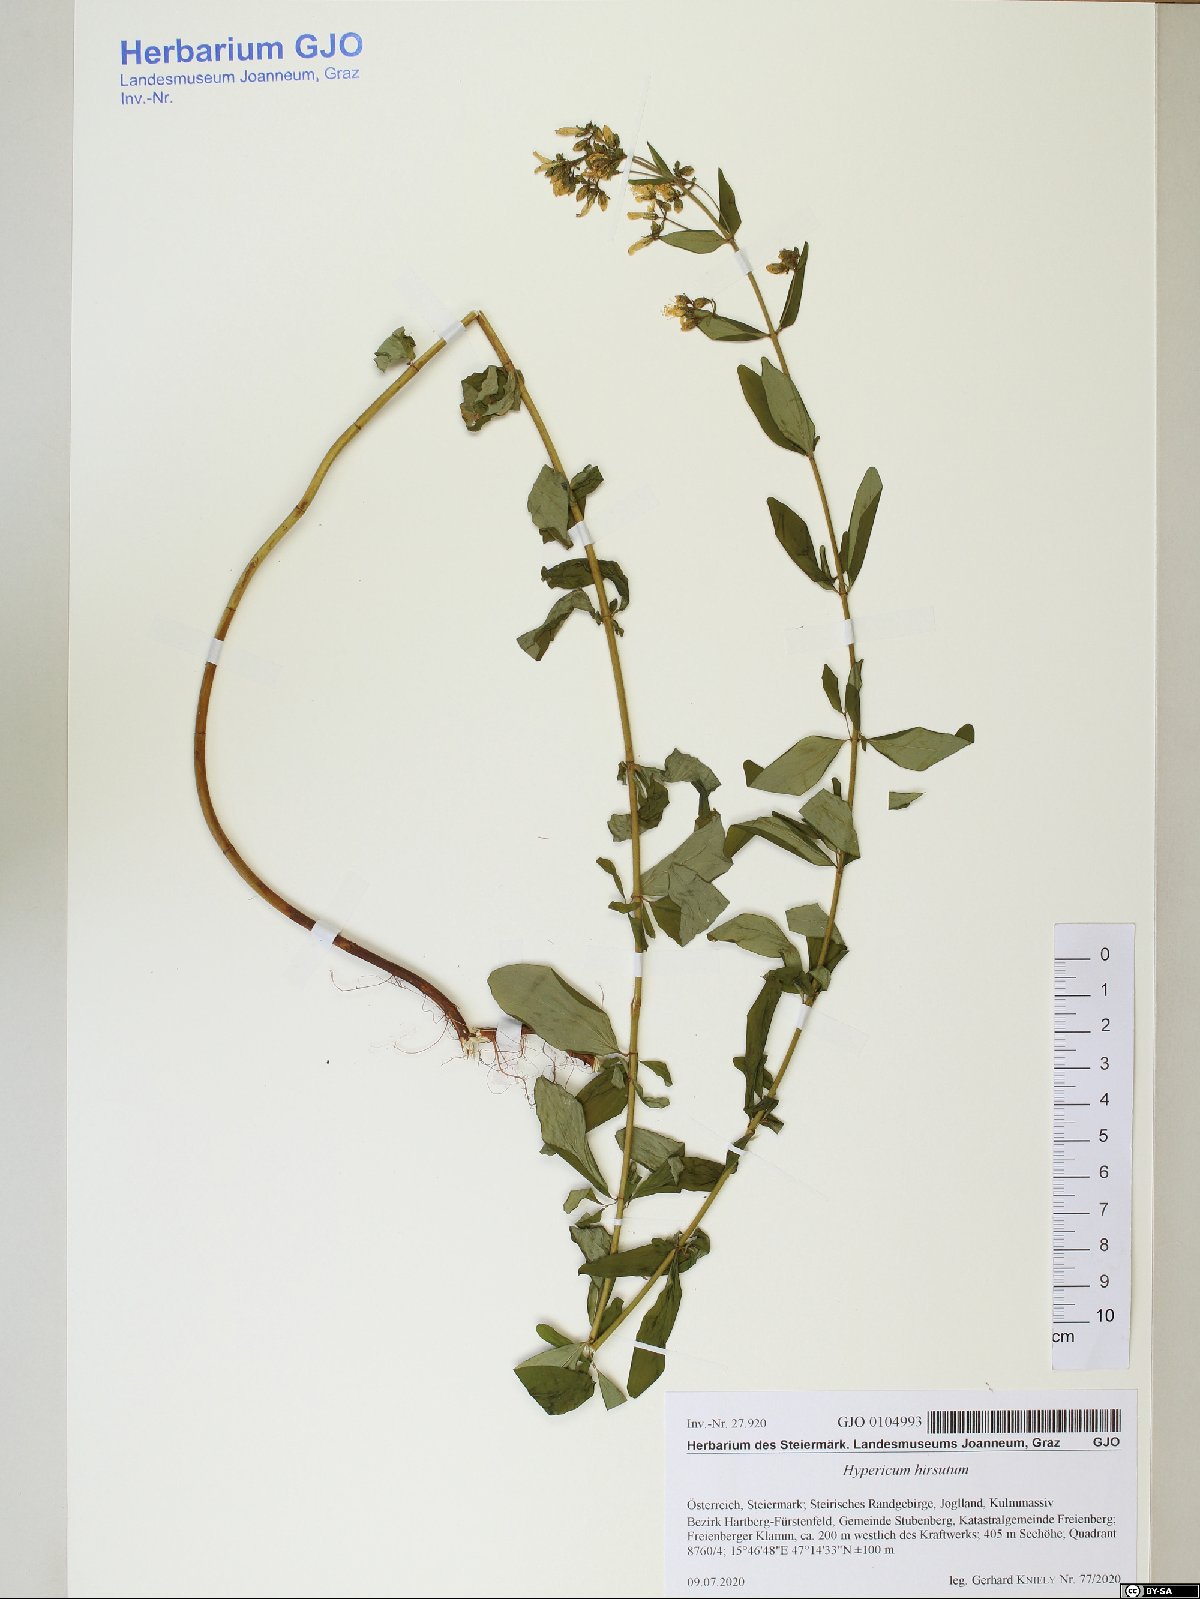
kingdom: Plantae
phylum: Tracheophyta
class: Magnoliopsida
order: Malpighiales
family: Hypericaceae
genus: Hypericum
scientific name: Hypericum hirsutum
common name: Hairy st. john's-wort
